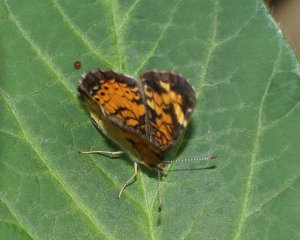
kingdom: Animalia
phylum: Arthropoda
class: Insecta
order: Lepidoptera
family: Nymphalidae
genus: Phyciodes
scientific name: Phyciodes tharos
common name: Northern Crescent
